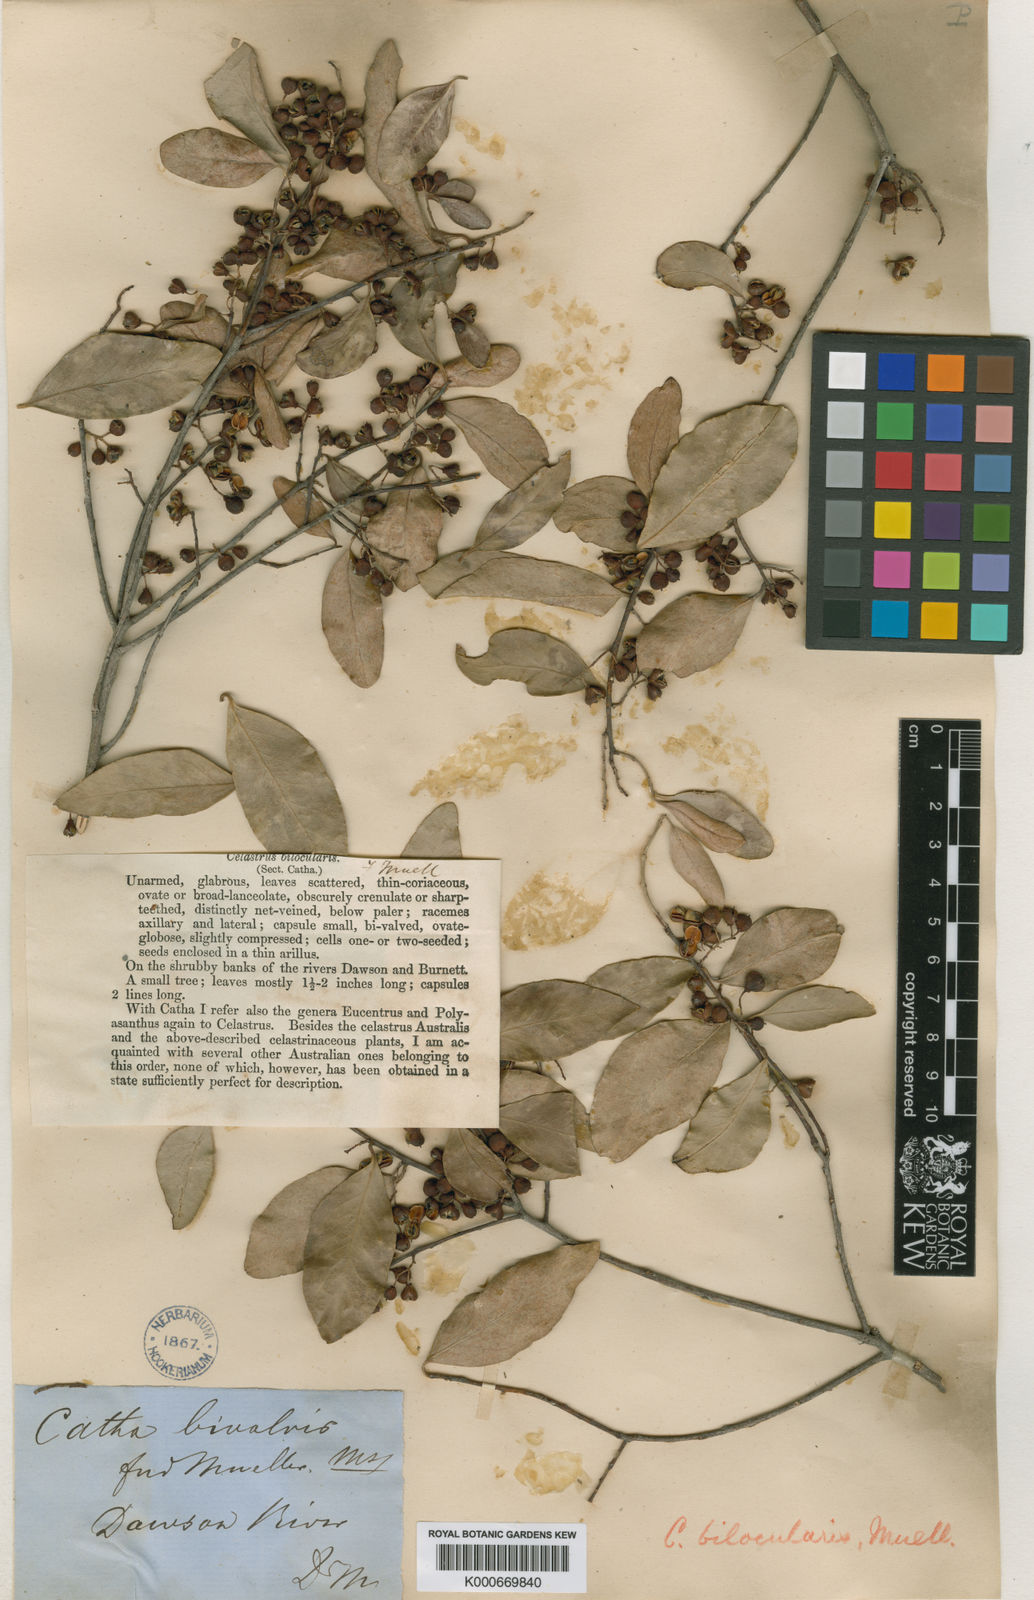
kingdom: Plantae
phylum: Tracheophyta
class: Magnoliopsida
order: Celastrales
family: Celastraceae
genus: Denhamia
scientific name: Denhamia bilocularis
